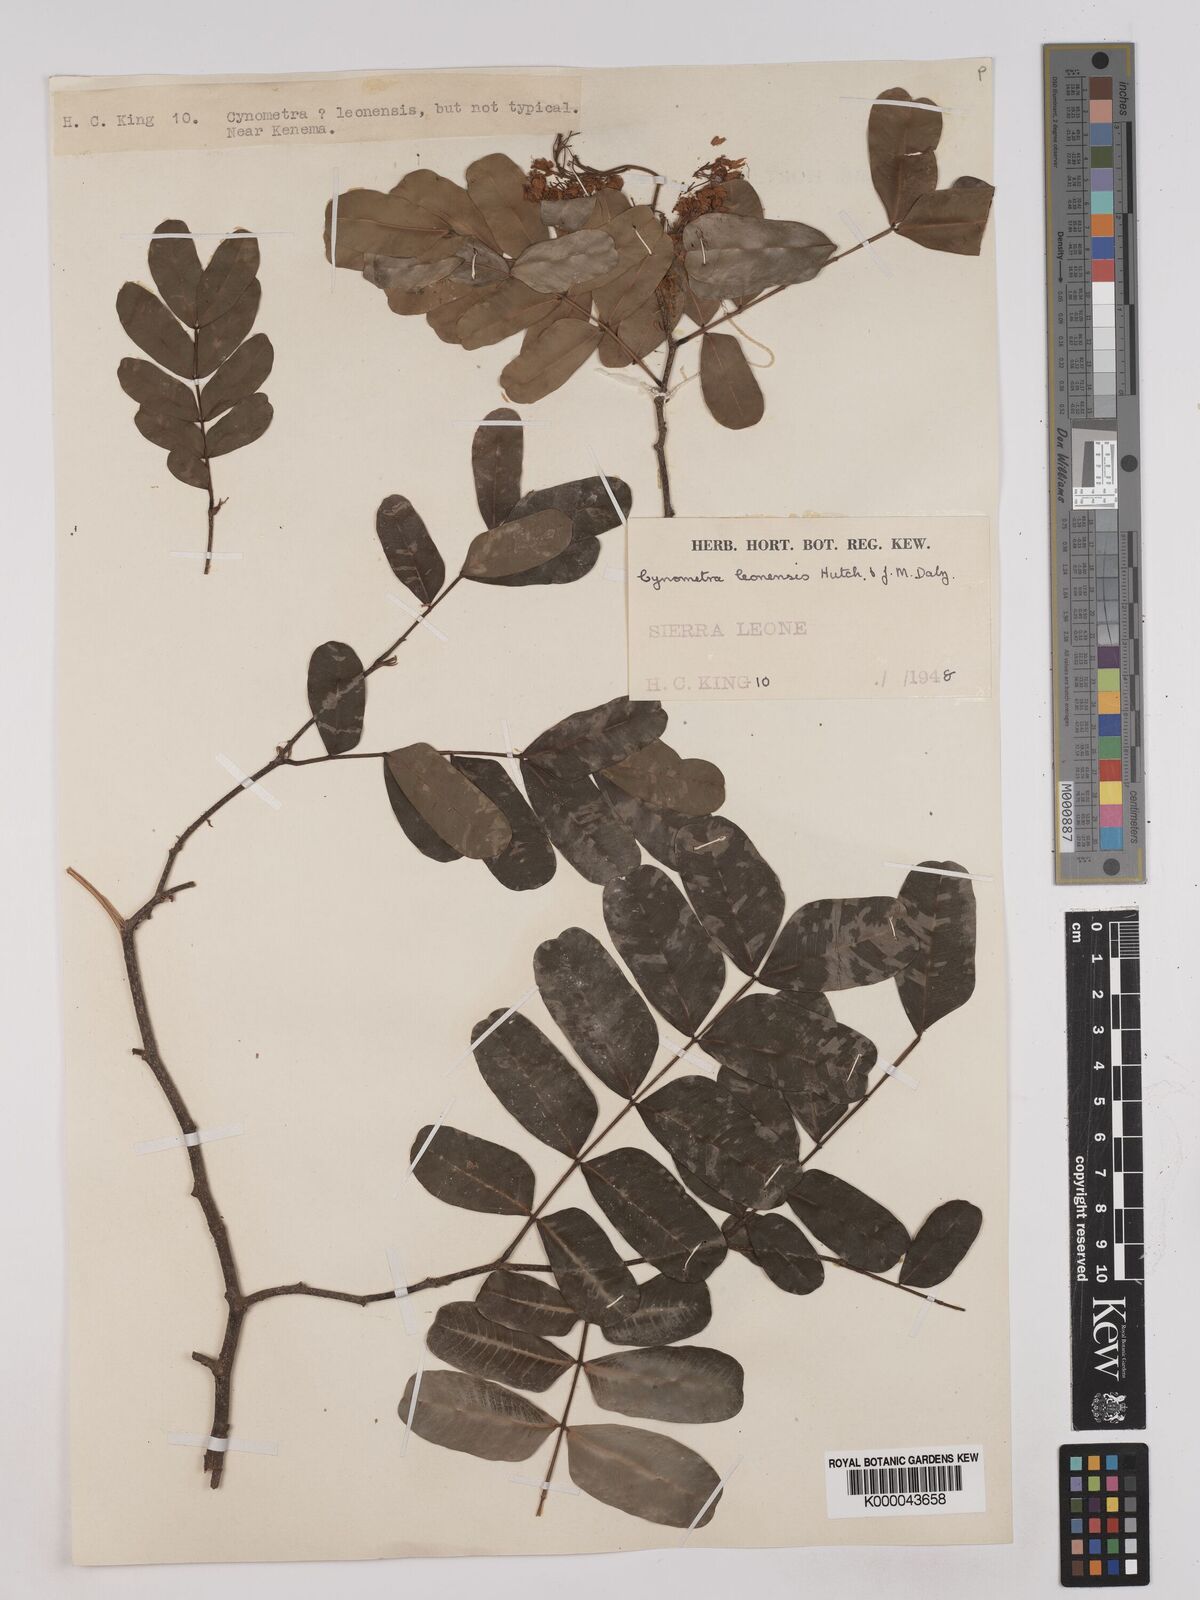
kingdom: Plantae
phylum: Tracheophyta
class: Magnoliopsida
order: Fabales
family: Fabaceae
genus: Cynometra
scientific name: Cynometra leonensis
